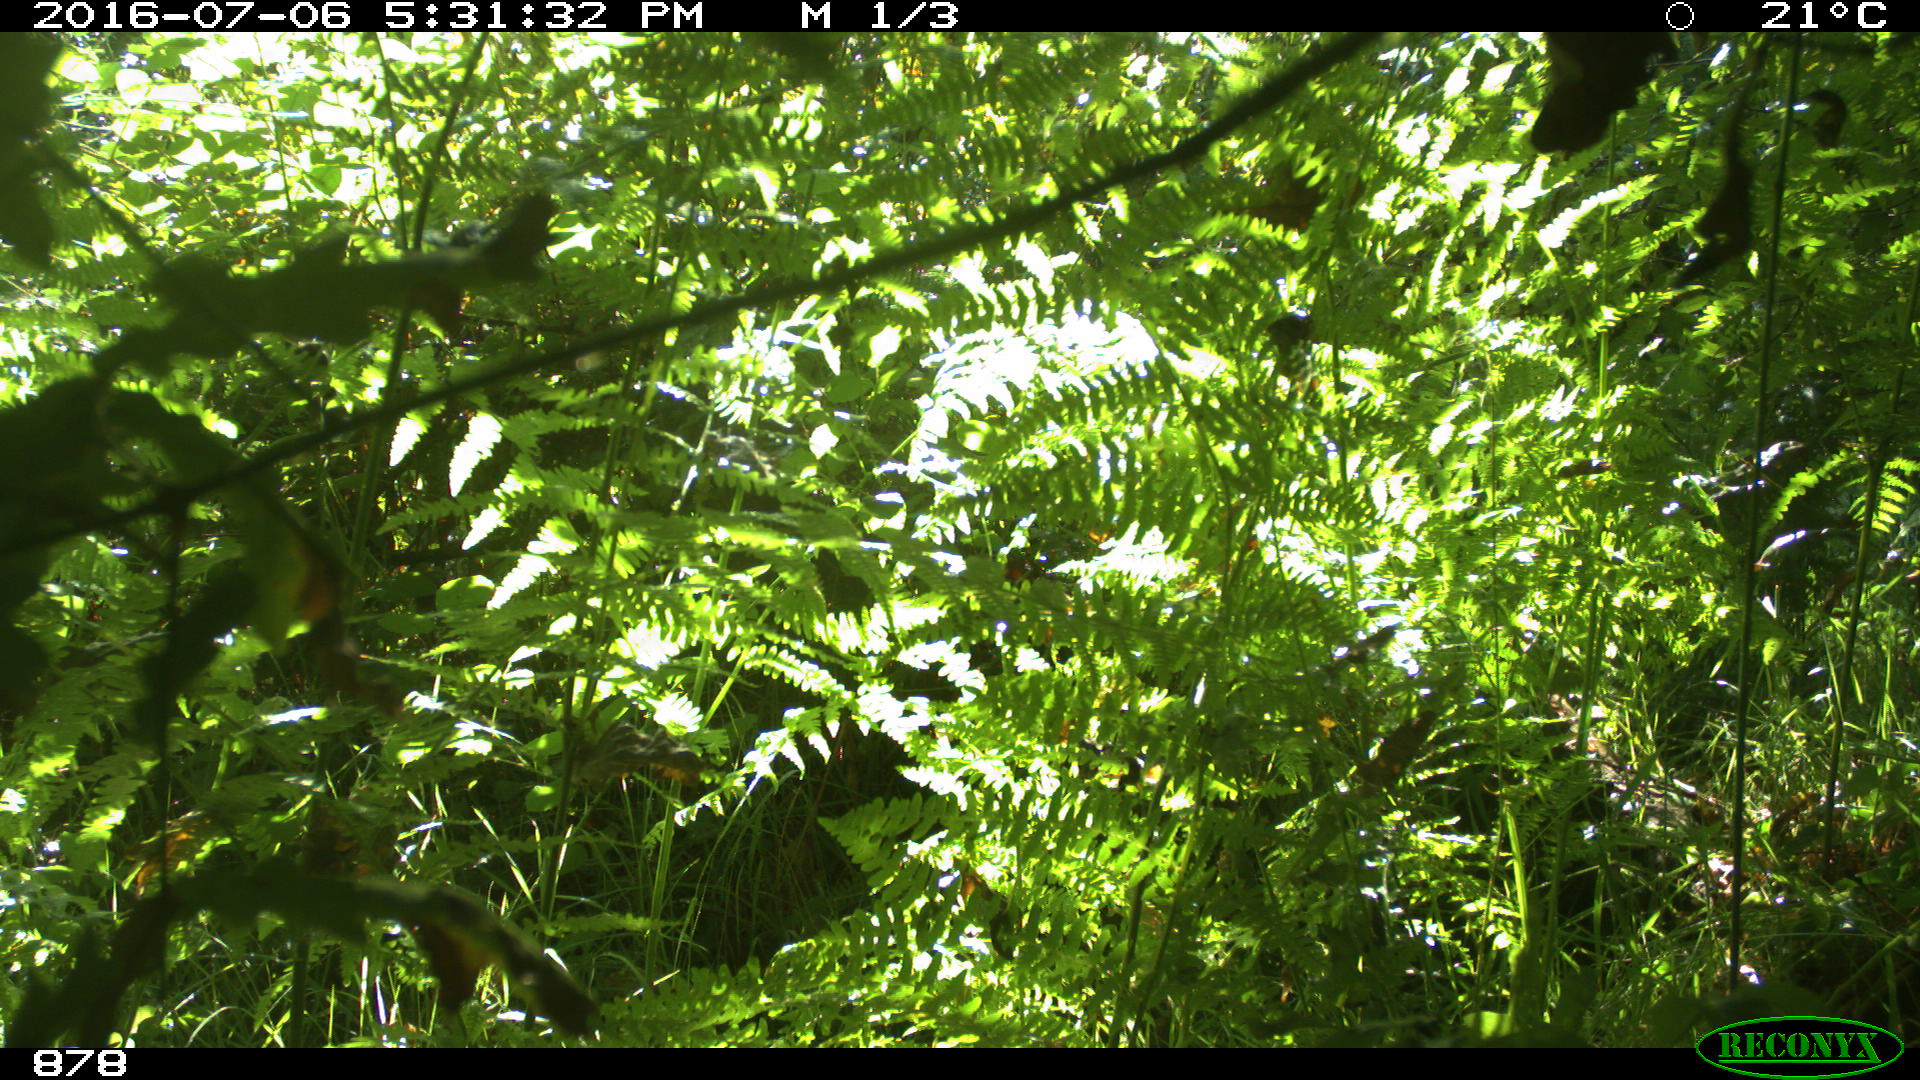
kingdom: Animalia
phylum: Chordata
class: Mammalia
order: Artiodactyla
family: Cervidae
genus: Capreolus
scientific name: Capreolus capreolus
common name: Western roe deer
